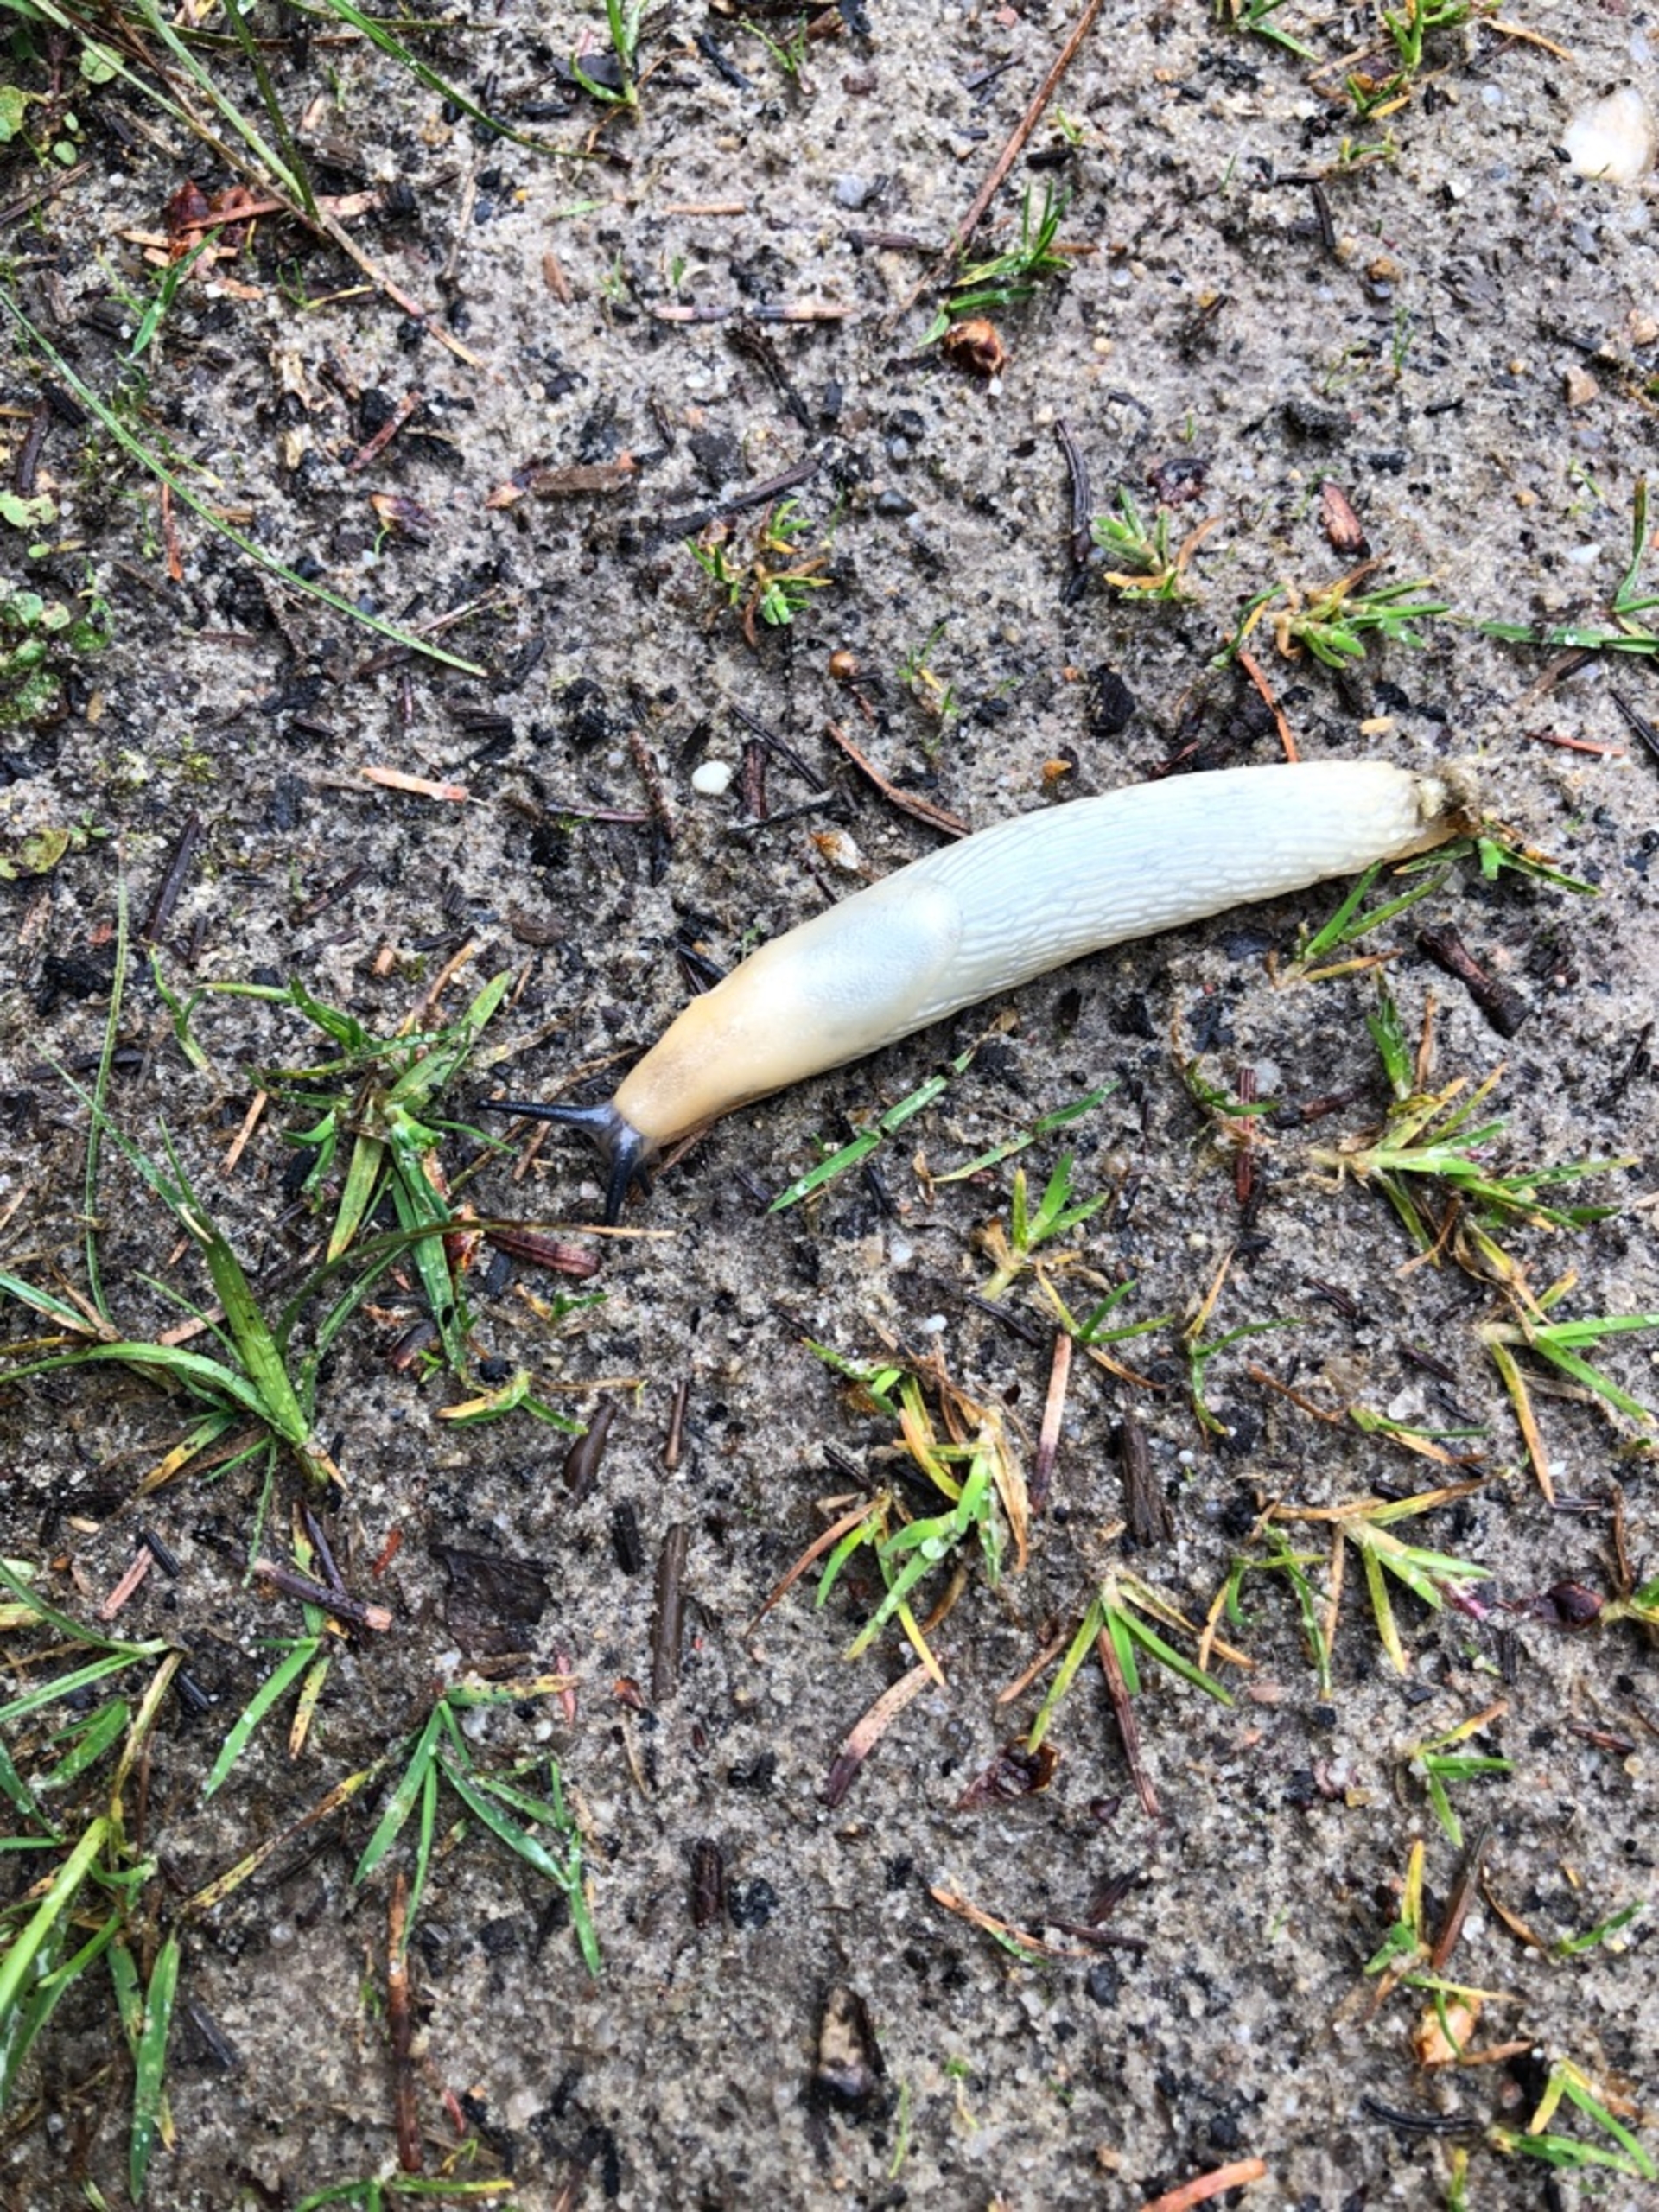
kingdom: Animalia
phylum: Mollusca
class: Gastropoda
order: Stylommatophora
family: Arionidae
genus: Arion
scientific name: Arion ater
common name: Sort skovsnegl
